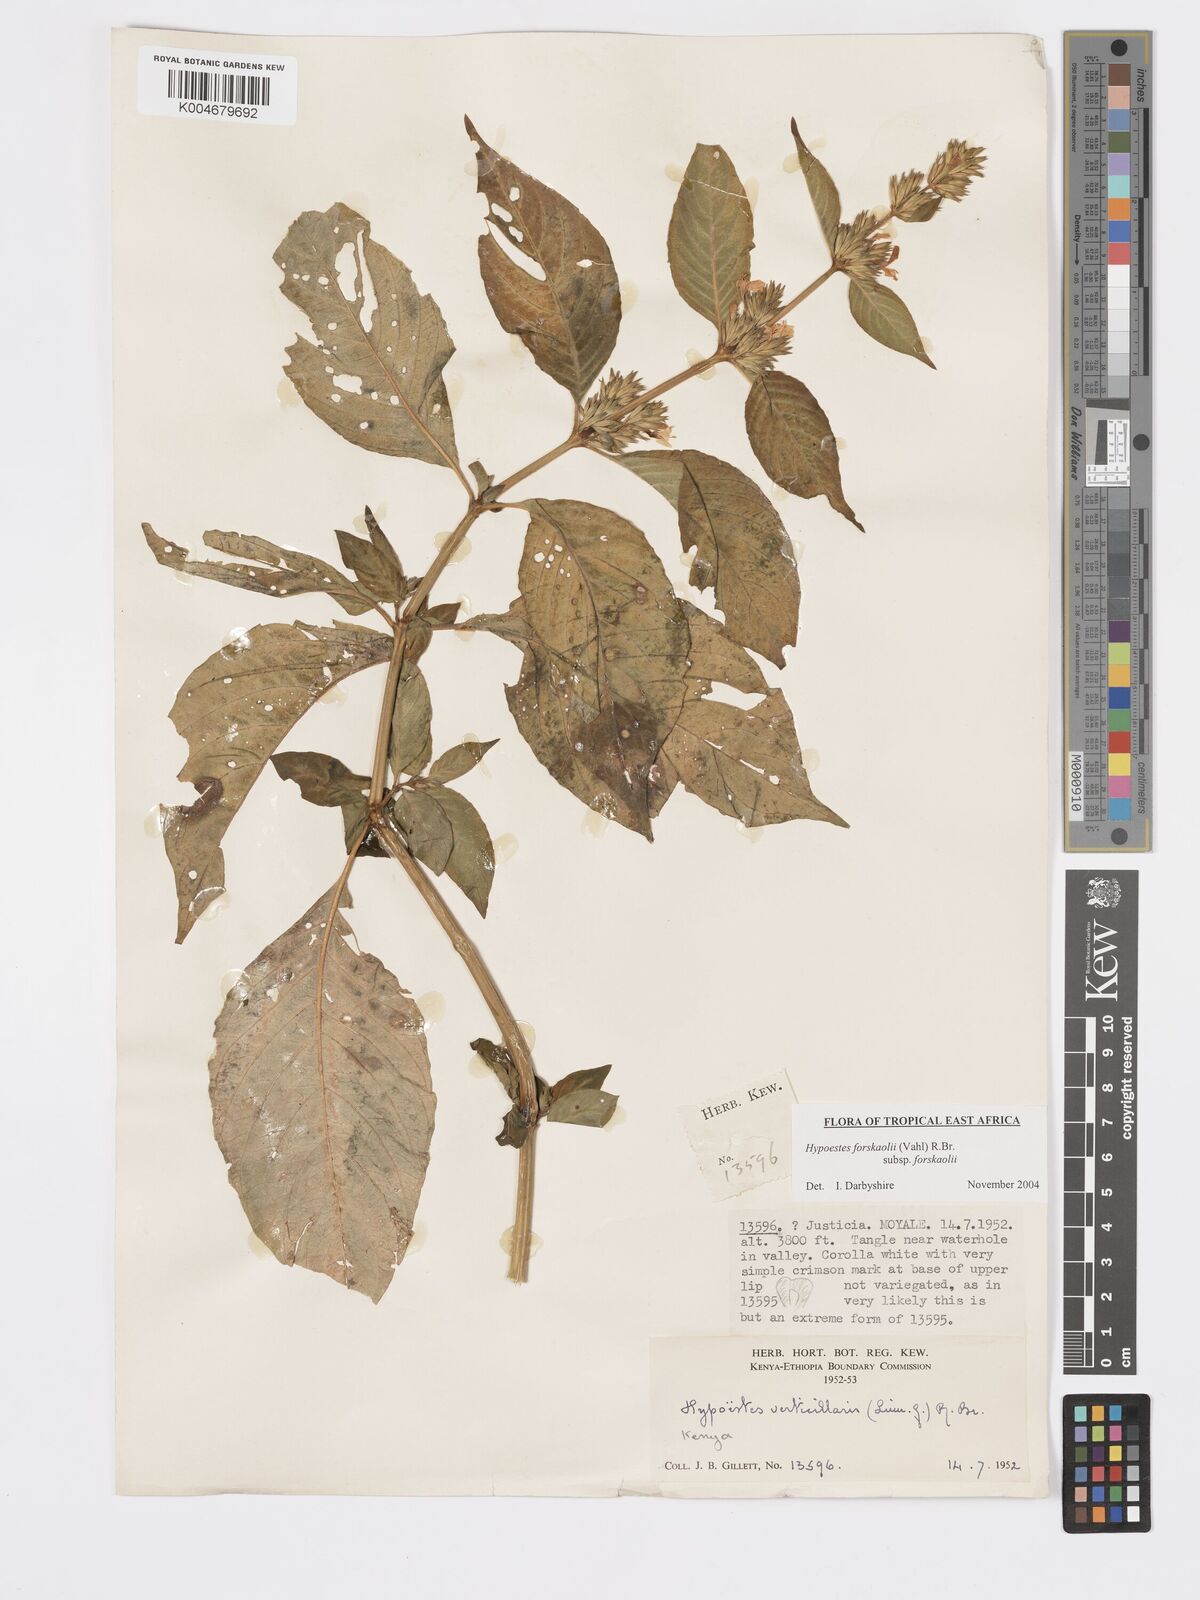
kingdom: Plantae
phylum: Tracheophyta
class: Magnoliopsida
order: Lamiales
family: Acanthaceae
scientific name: Acanthaceae
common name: Acanthaceae
